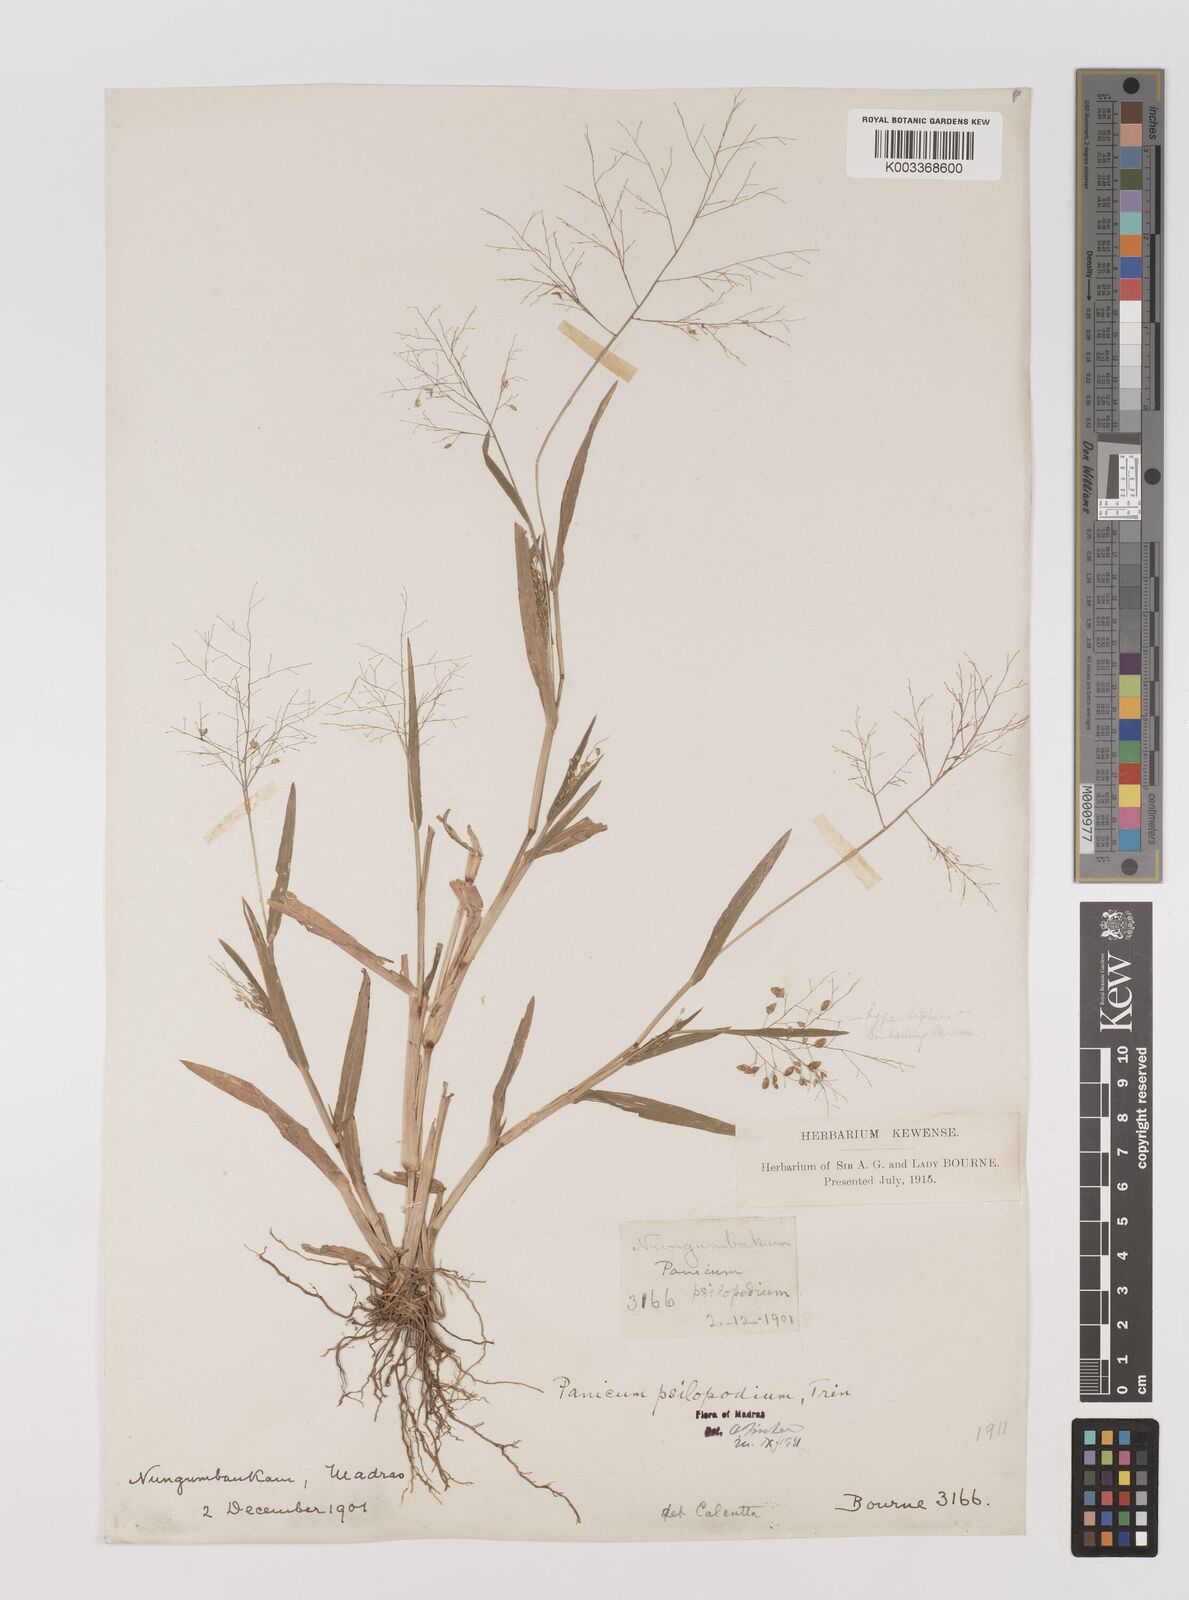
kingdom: Plantae
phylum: Tracheophyta
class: Liliopsida
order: Poales
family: Poaceae
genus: Panicum
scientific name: Panicum sumatrense
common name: Little millet
